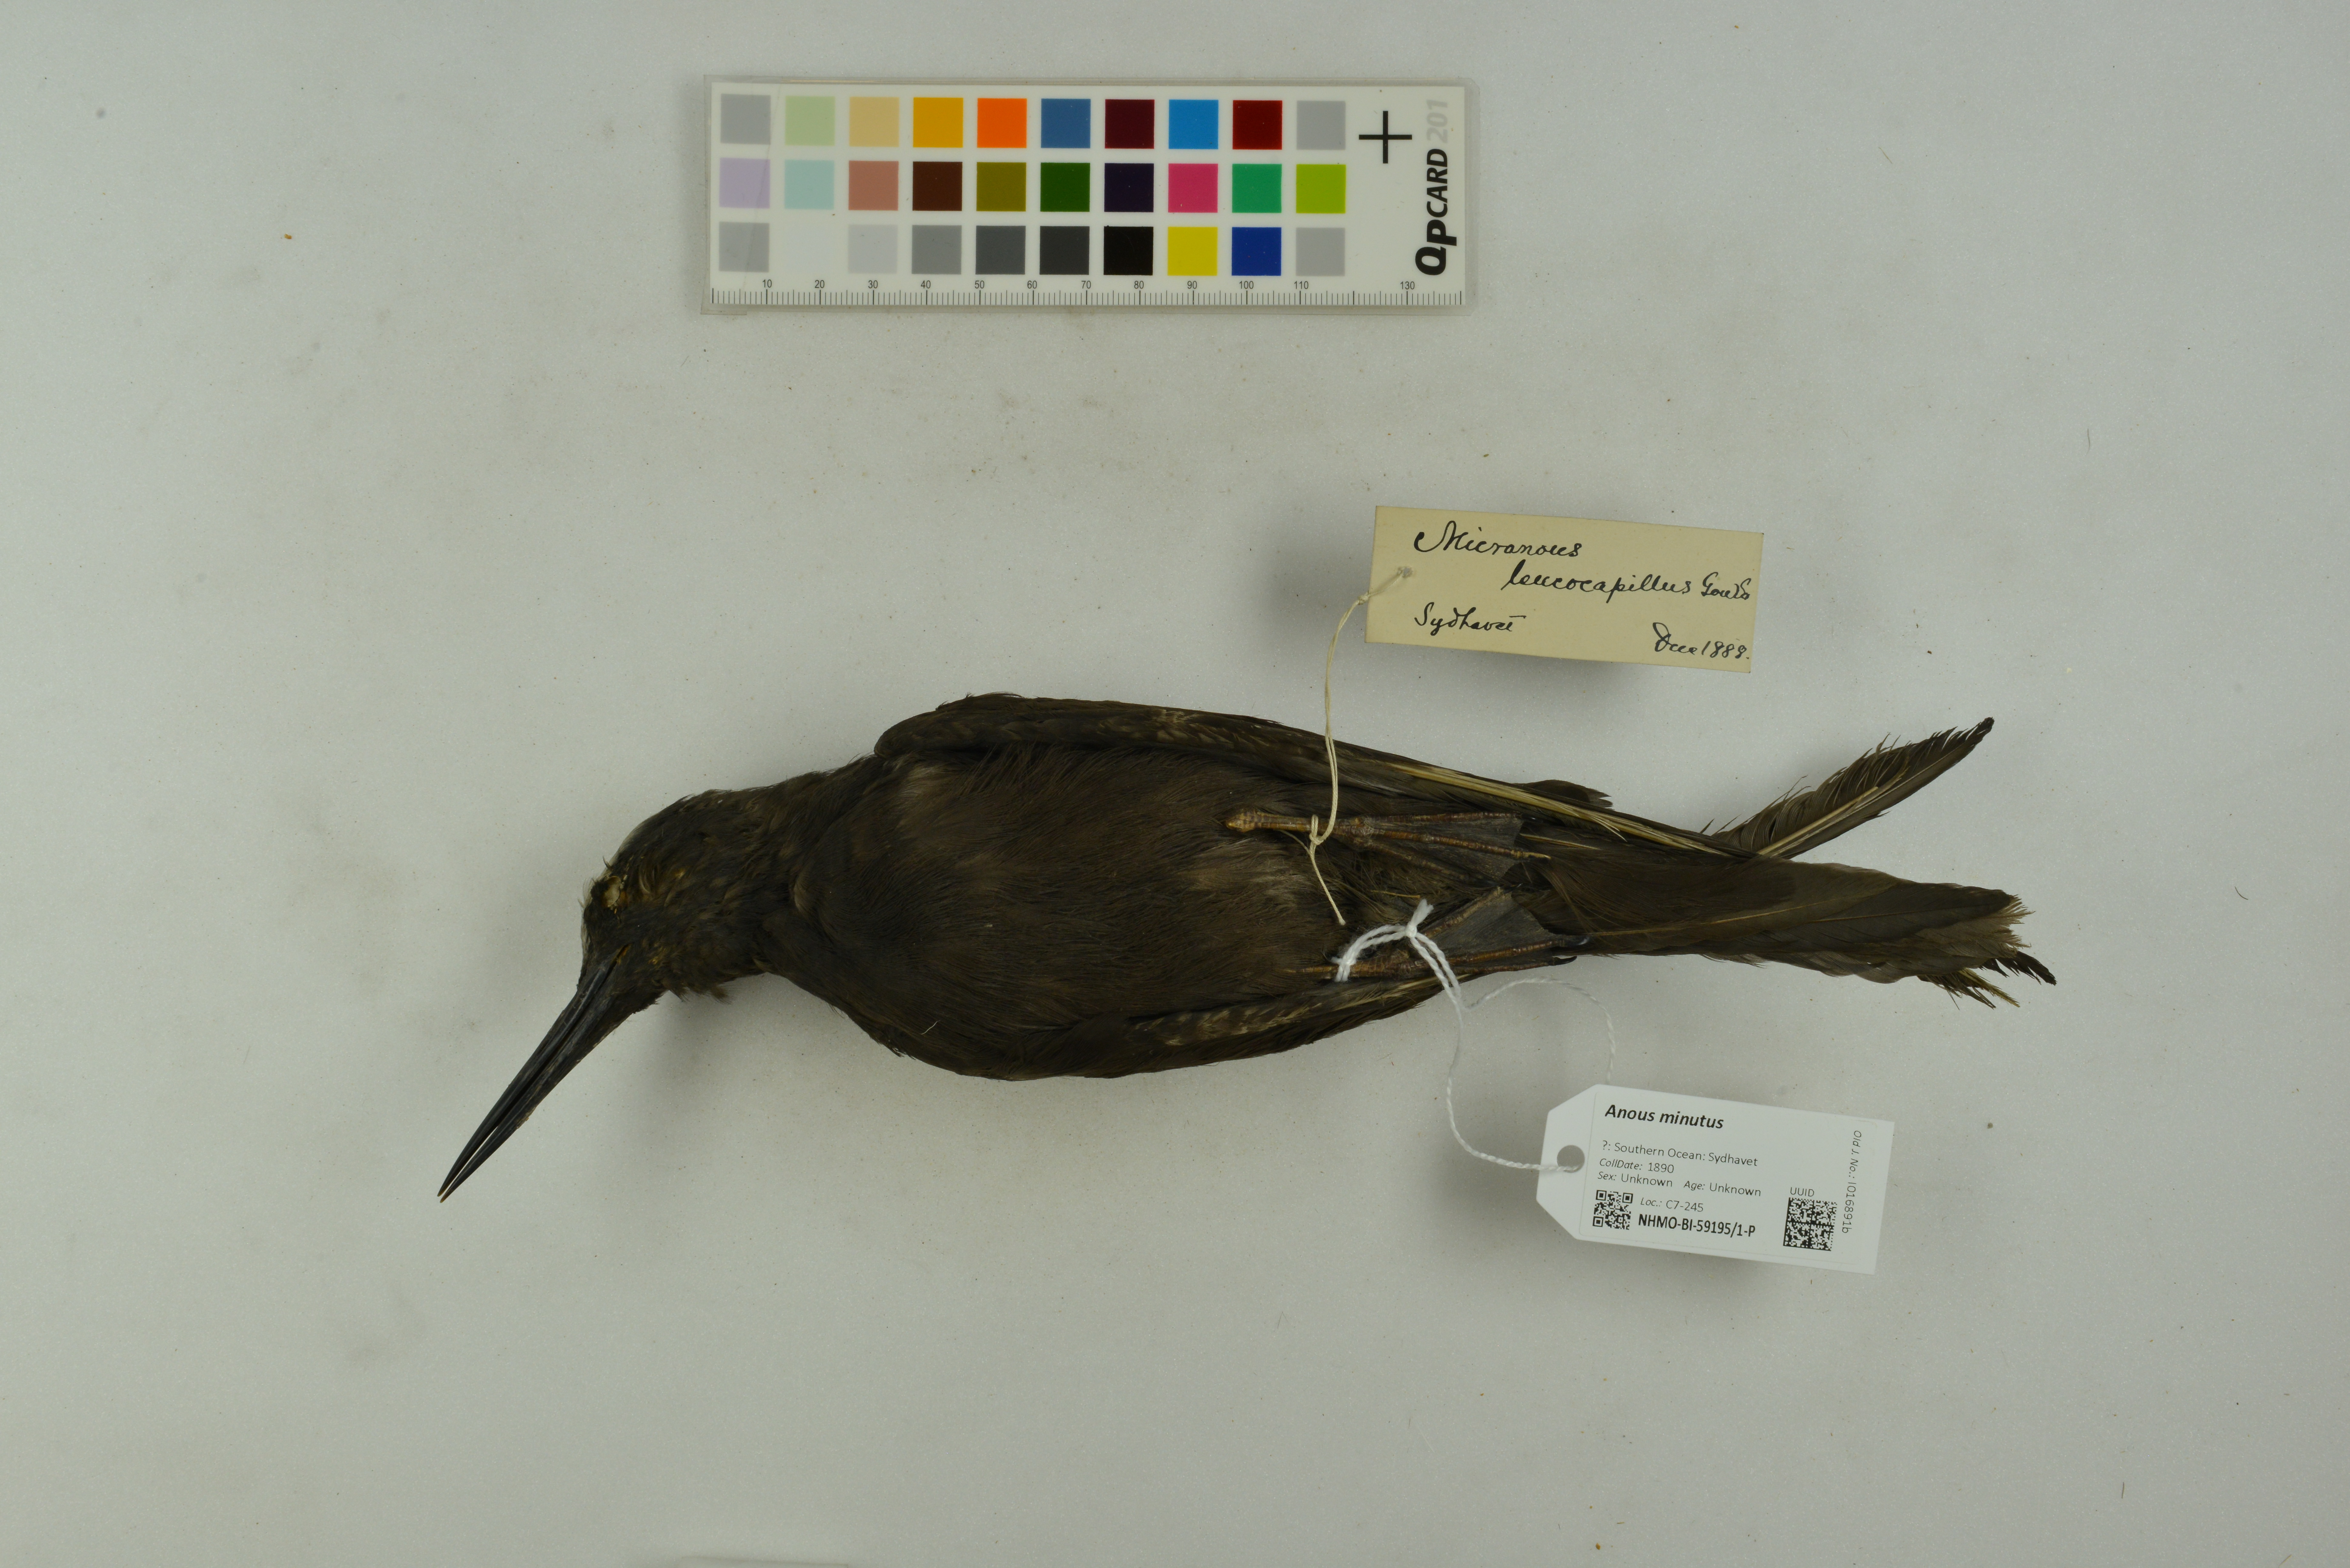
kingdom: Animalia
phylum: Chordata
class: Aves
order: Charadriiformes
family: Laridae
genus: Anous
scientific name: Anous minutus
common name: Black noddy
